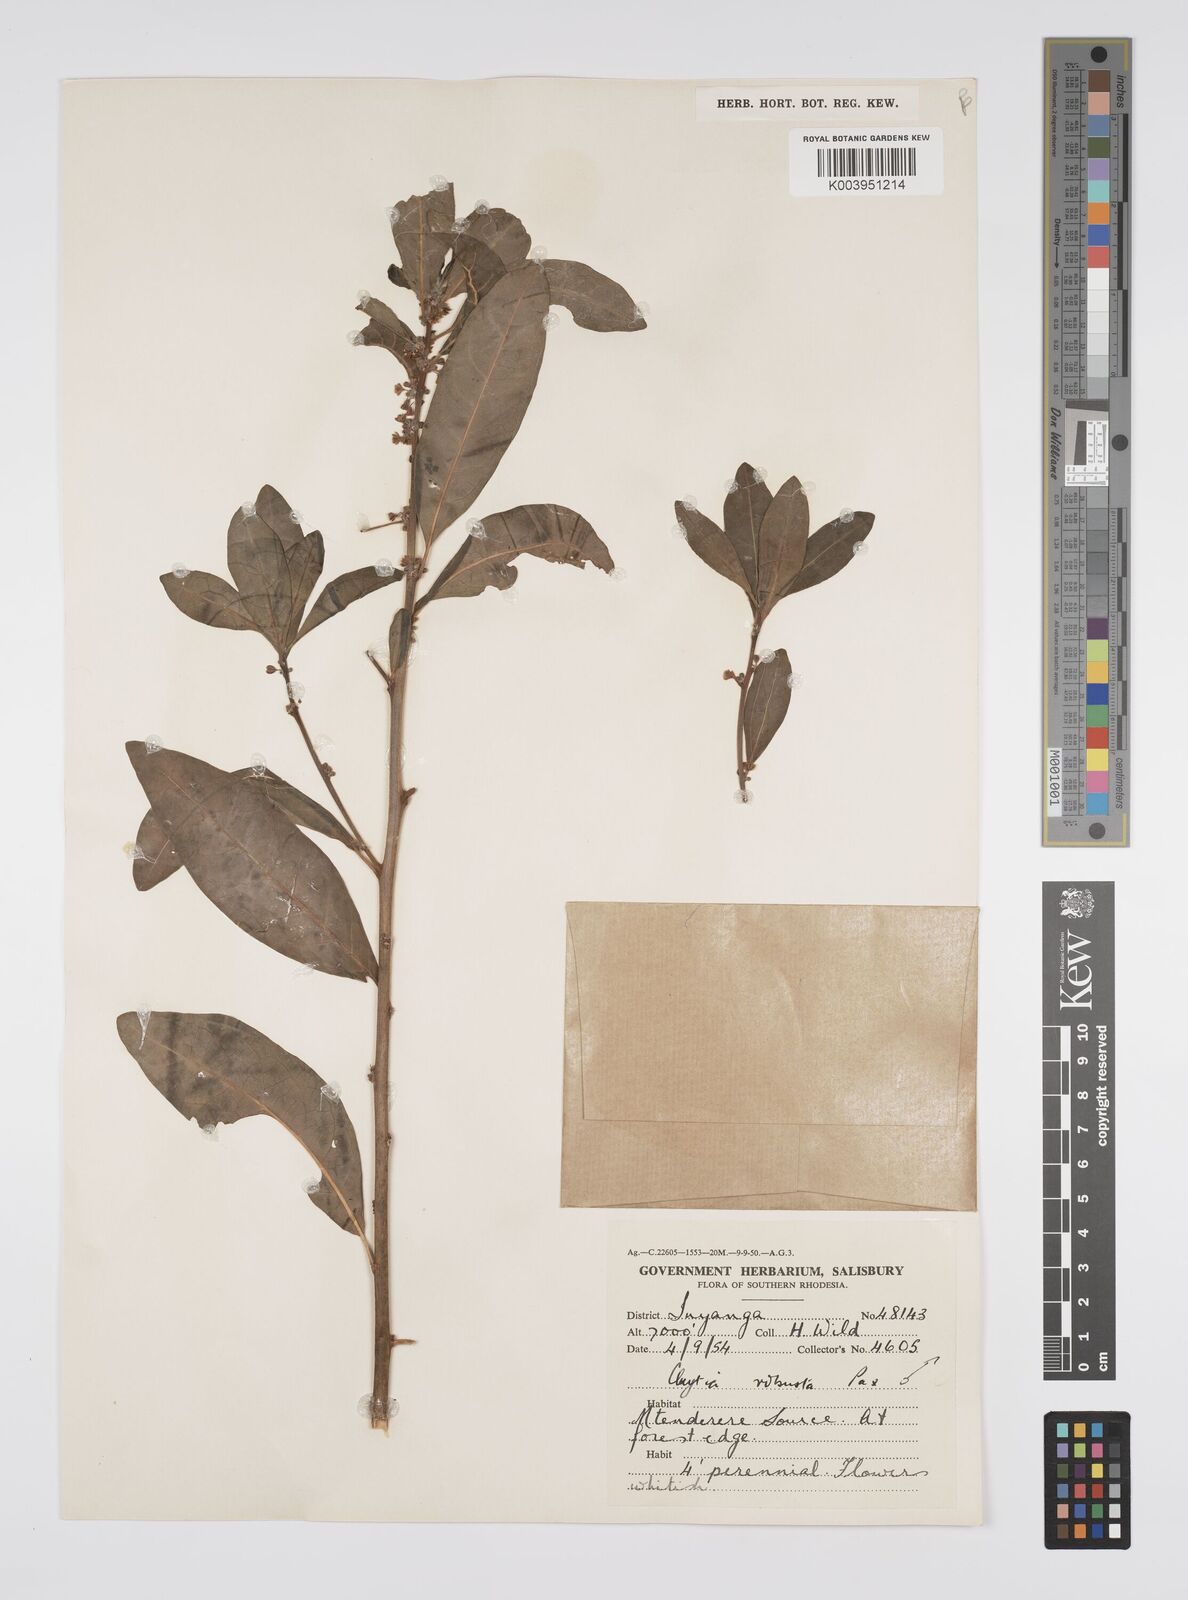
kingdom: Plantae
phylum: Tracheophyta
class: Magnoliopsida
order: Malpighiales
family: Peraceae
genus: Clutia
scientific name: Clutia kilimandscharica
